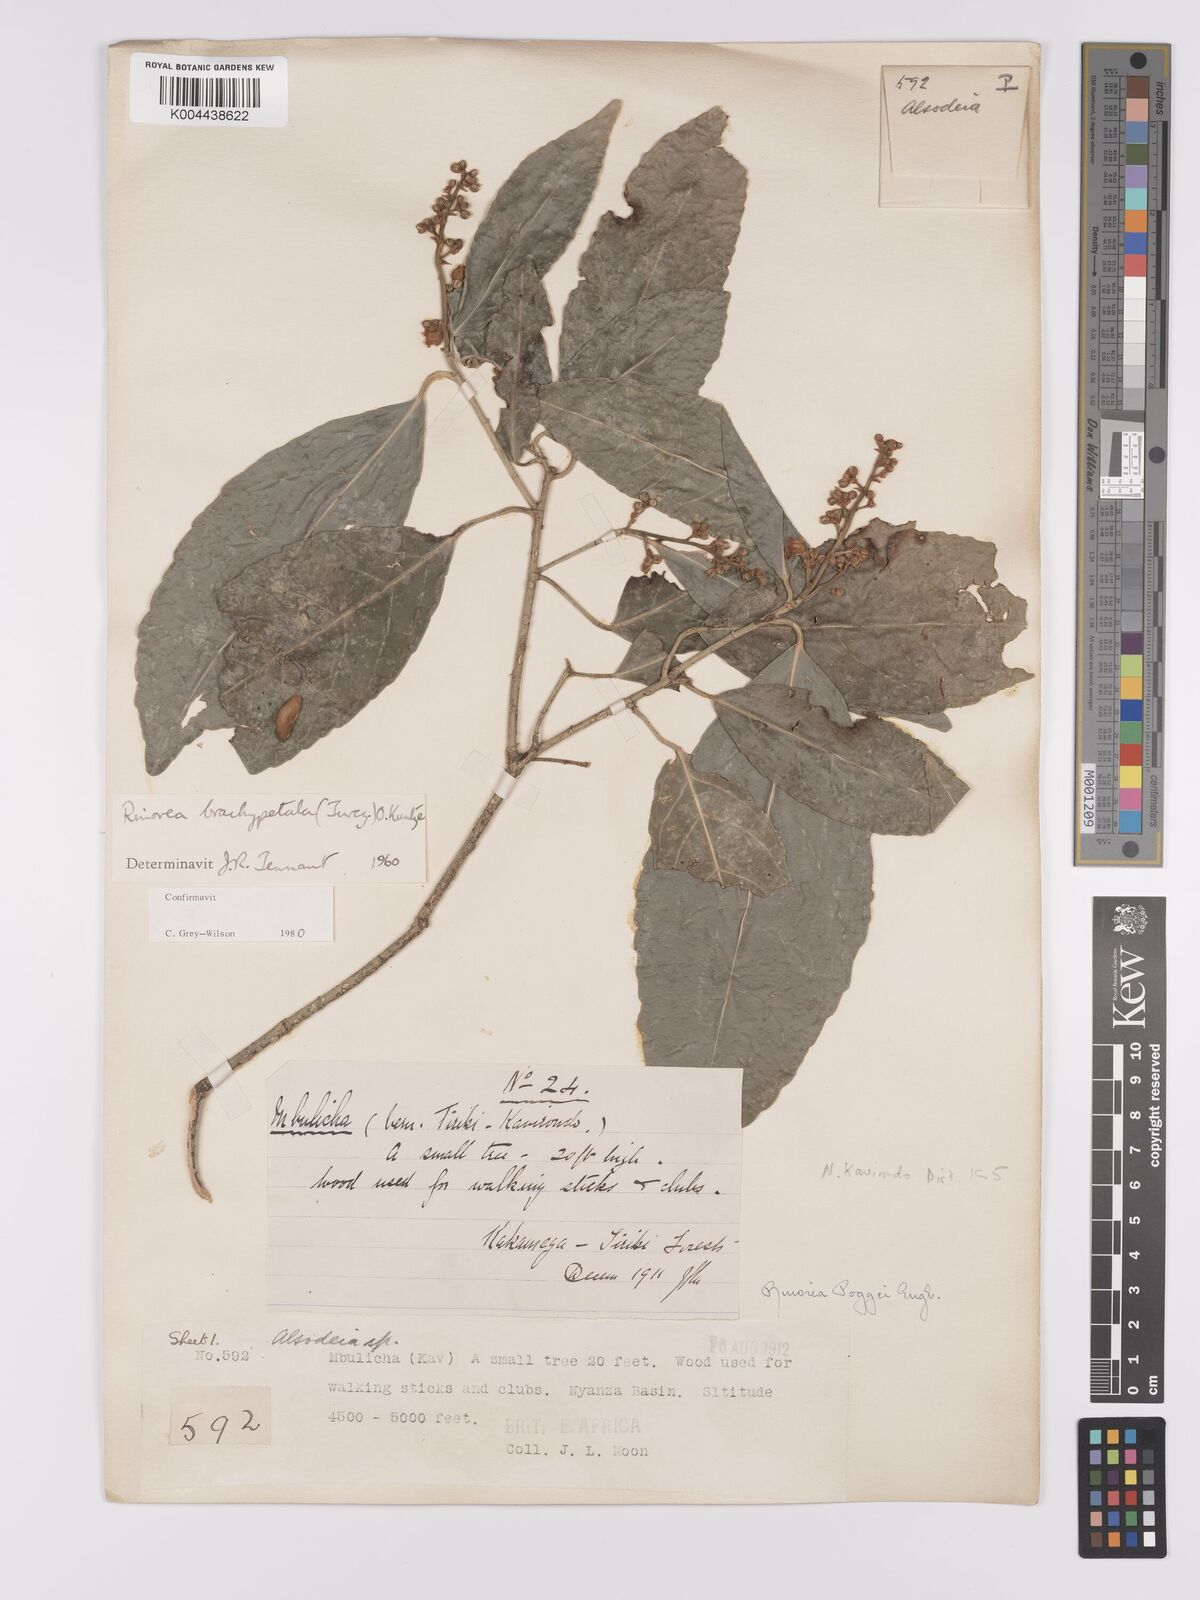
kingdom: Plantae
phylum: Tracheophyta
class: Magnoliopsida
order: Malpighiales
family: Violaceae
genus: Rinorea
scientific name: Rinorea brachypetala
